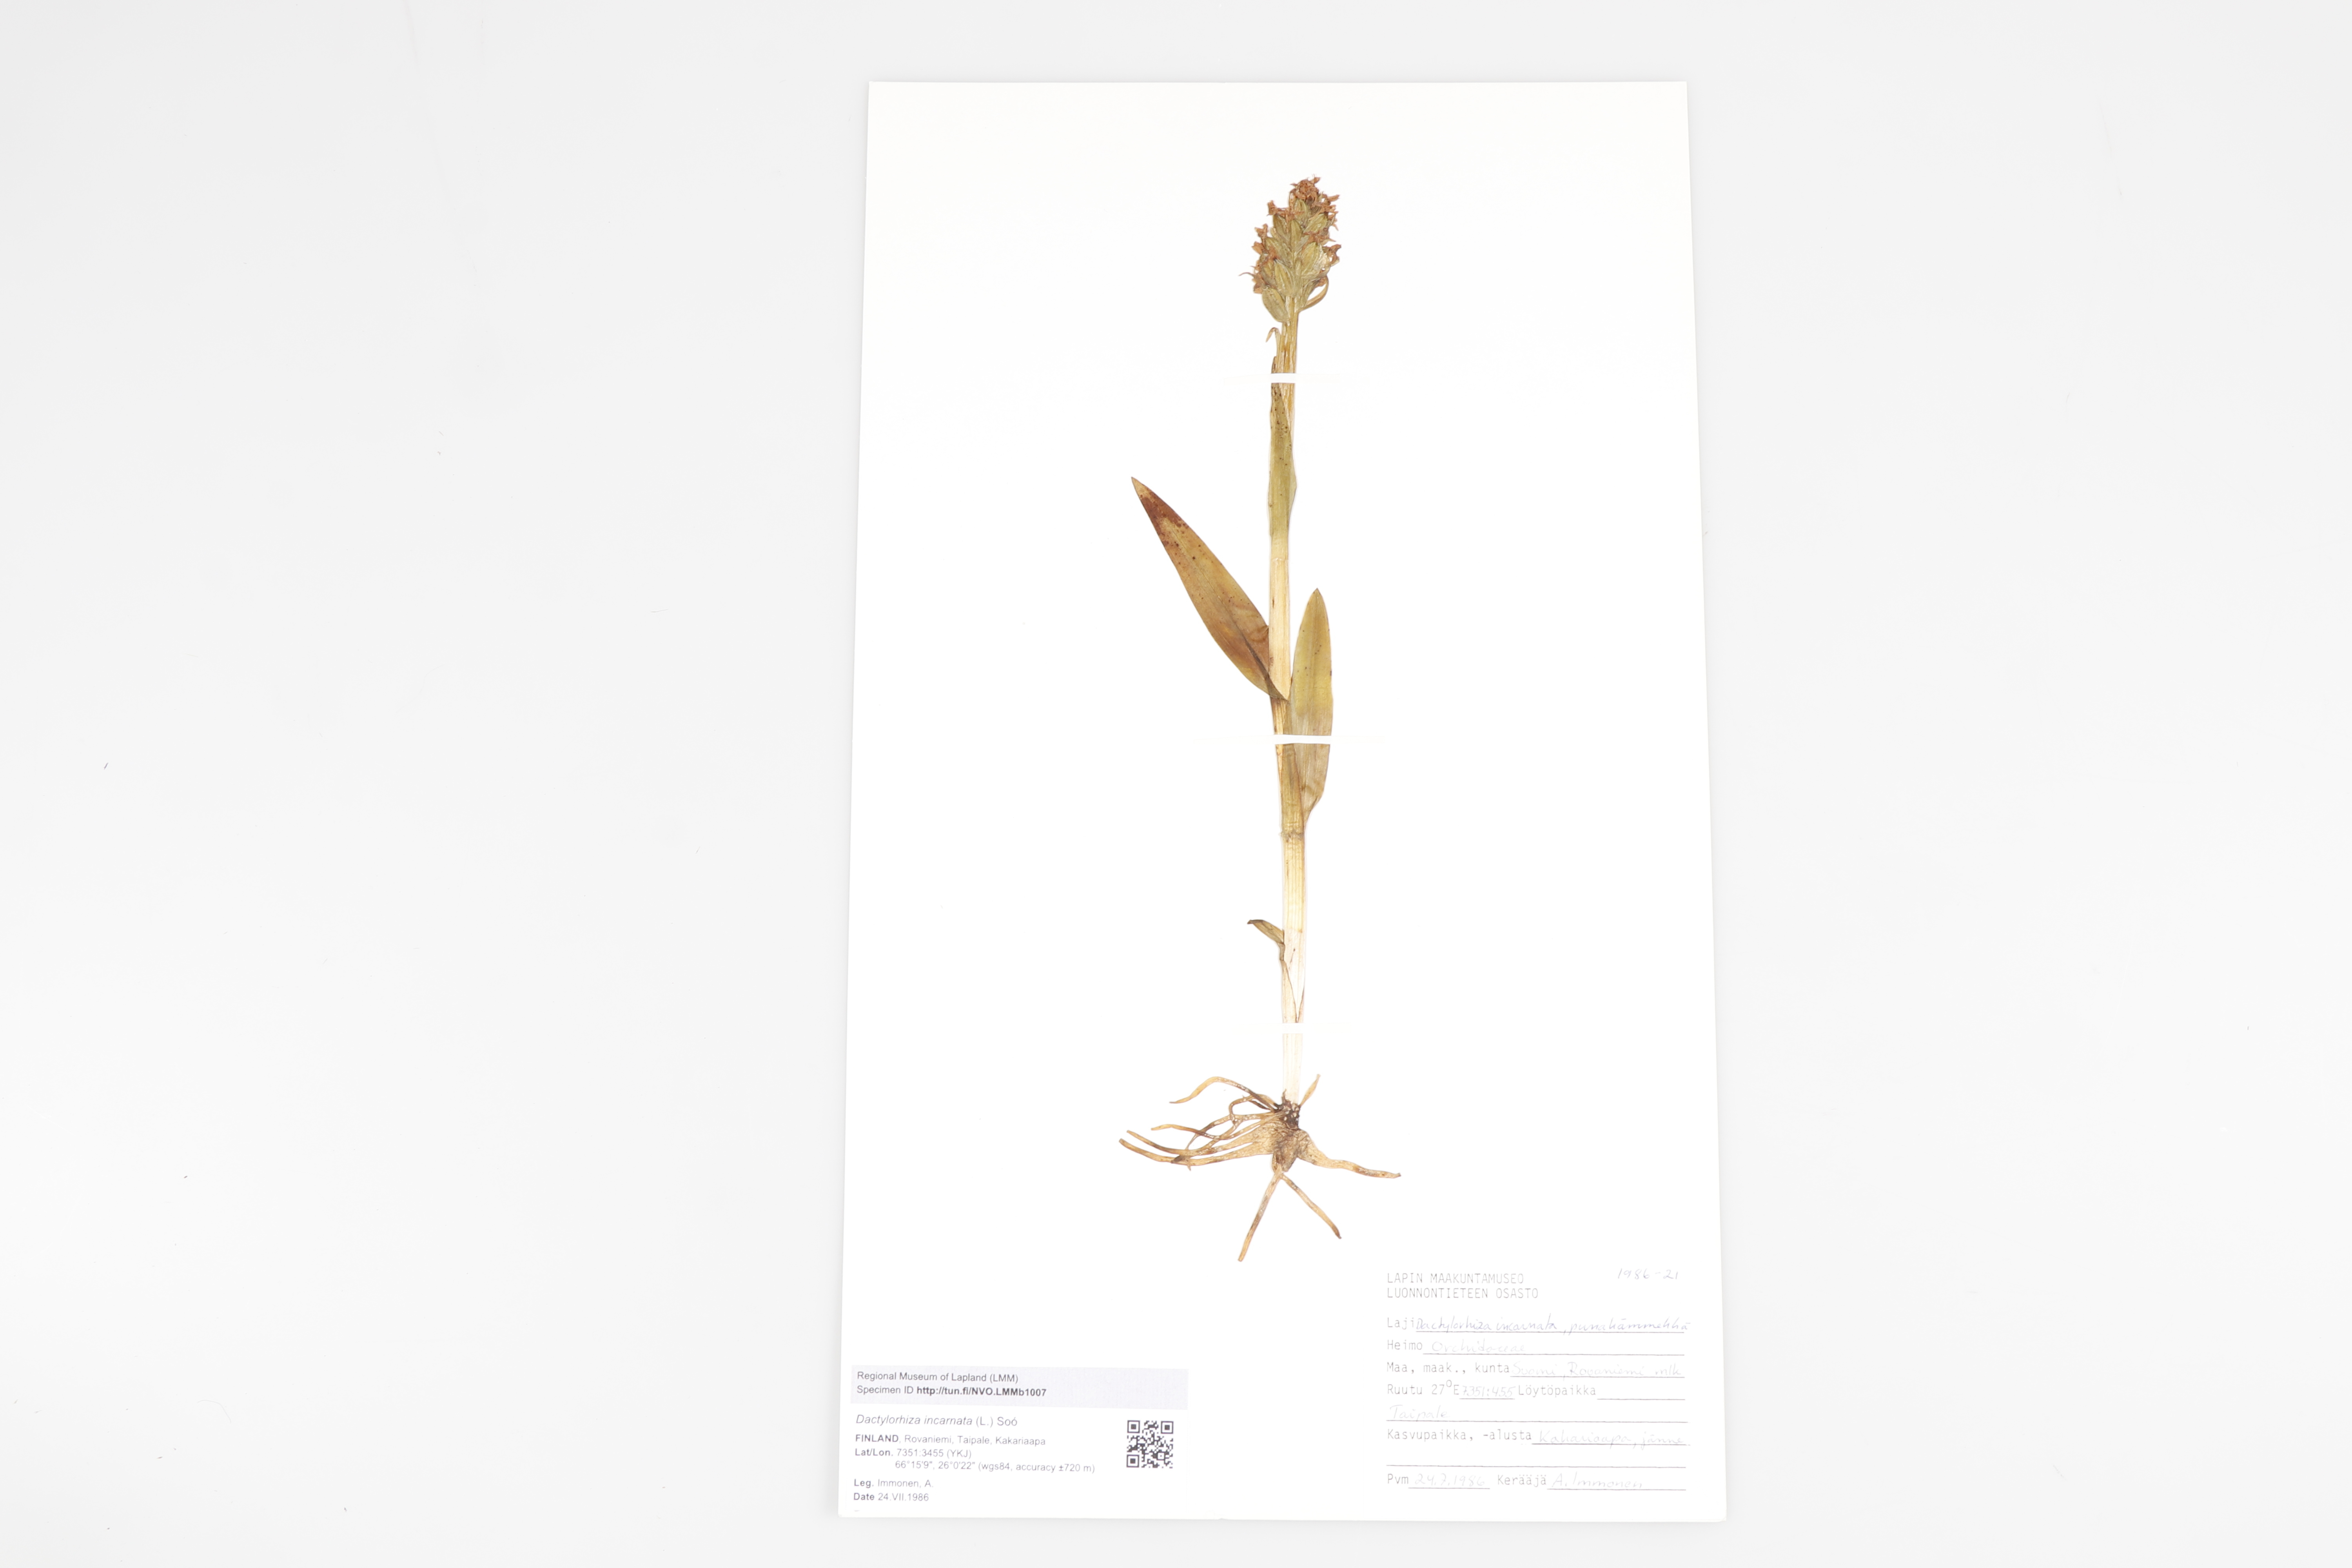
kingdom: Plantae
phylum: Tracheophyta
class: Liliopsida
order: Asparagales
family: Orchidaceae
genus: Dactylorhiza
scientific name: Dactylorhiza incarnata
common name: Early marsh-orchid
